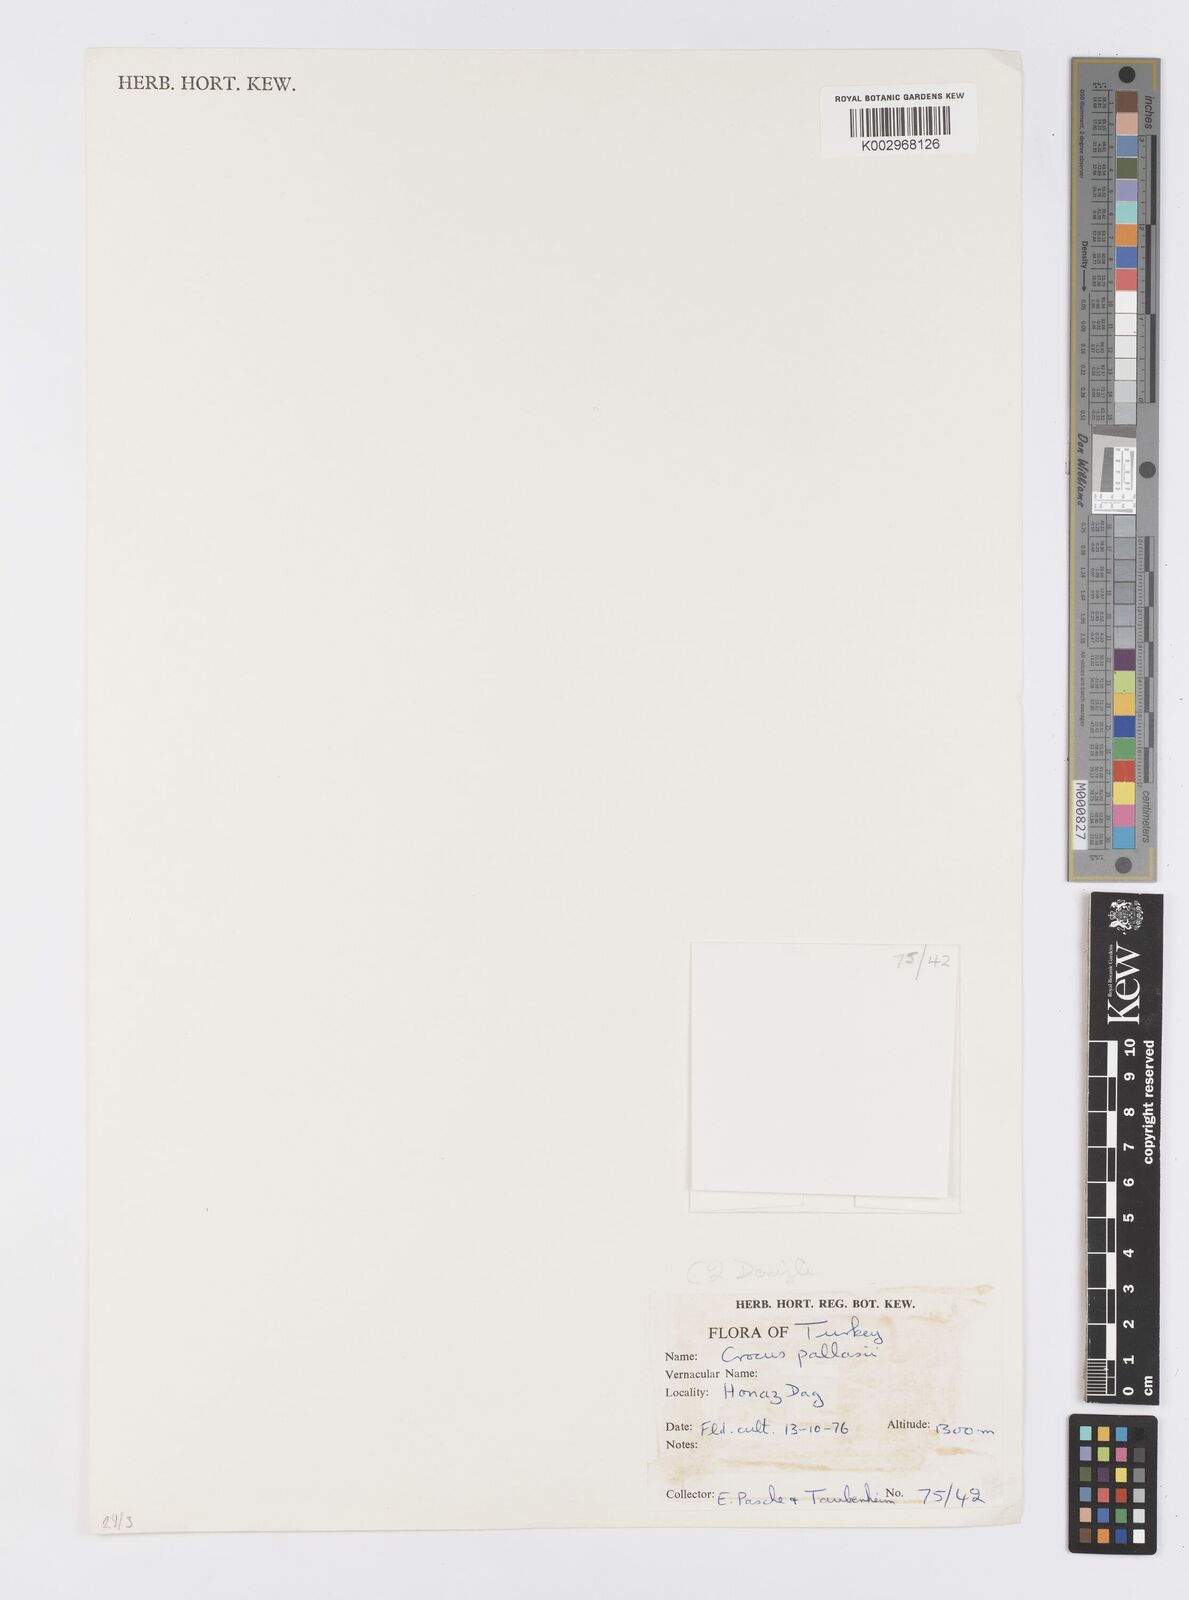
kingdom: Plantae
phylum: Tracheophyta
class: Liliopsida
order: Asparagales
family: Iridaceae
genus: Crocus
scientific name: Crocus
